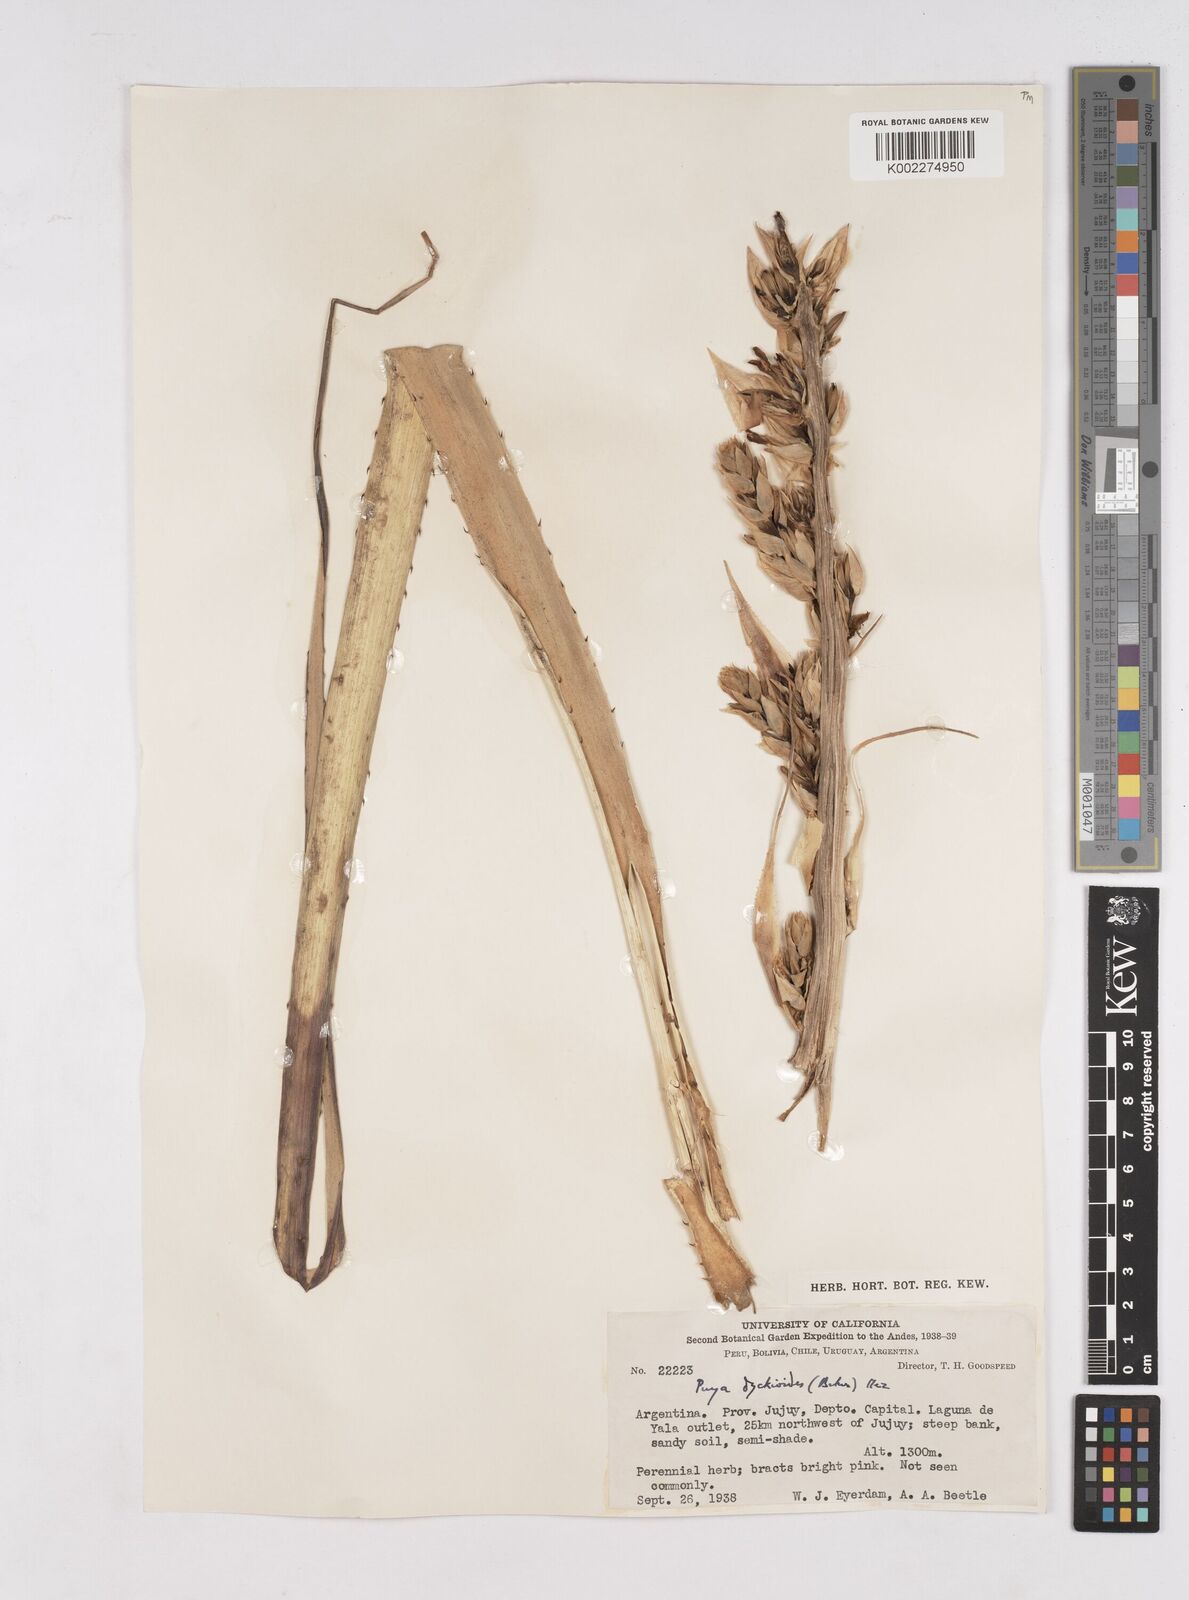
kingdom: Plantae
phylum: Tracheophyta
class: Liliopsida
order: Poales
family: Bromeliaceae
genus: Puya
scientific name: Puya dyckioides
